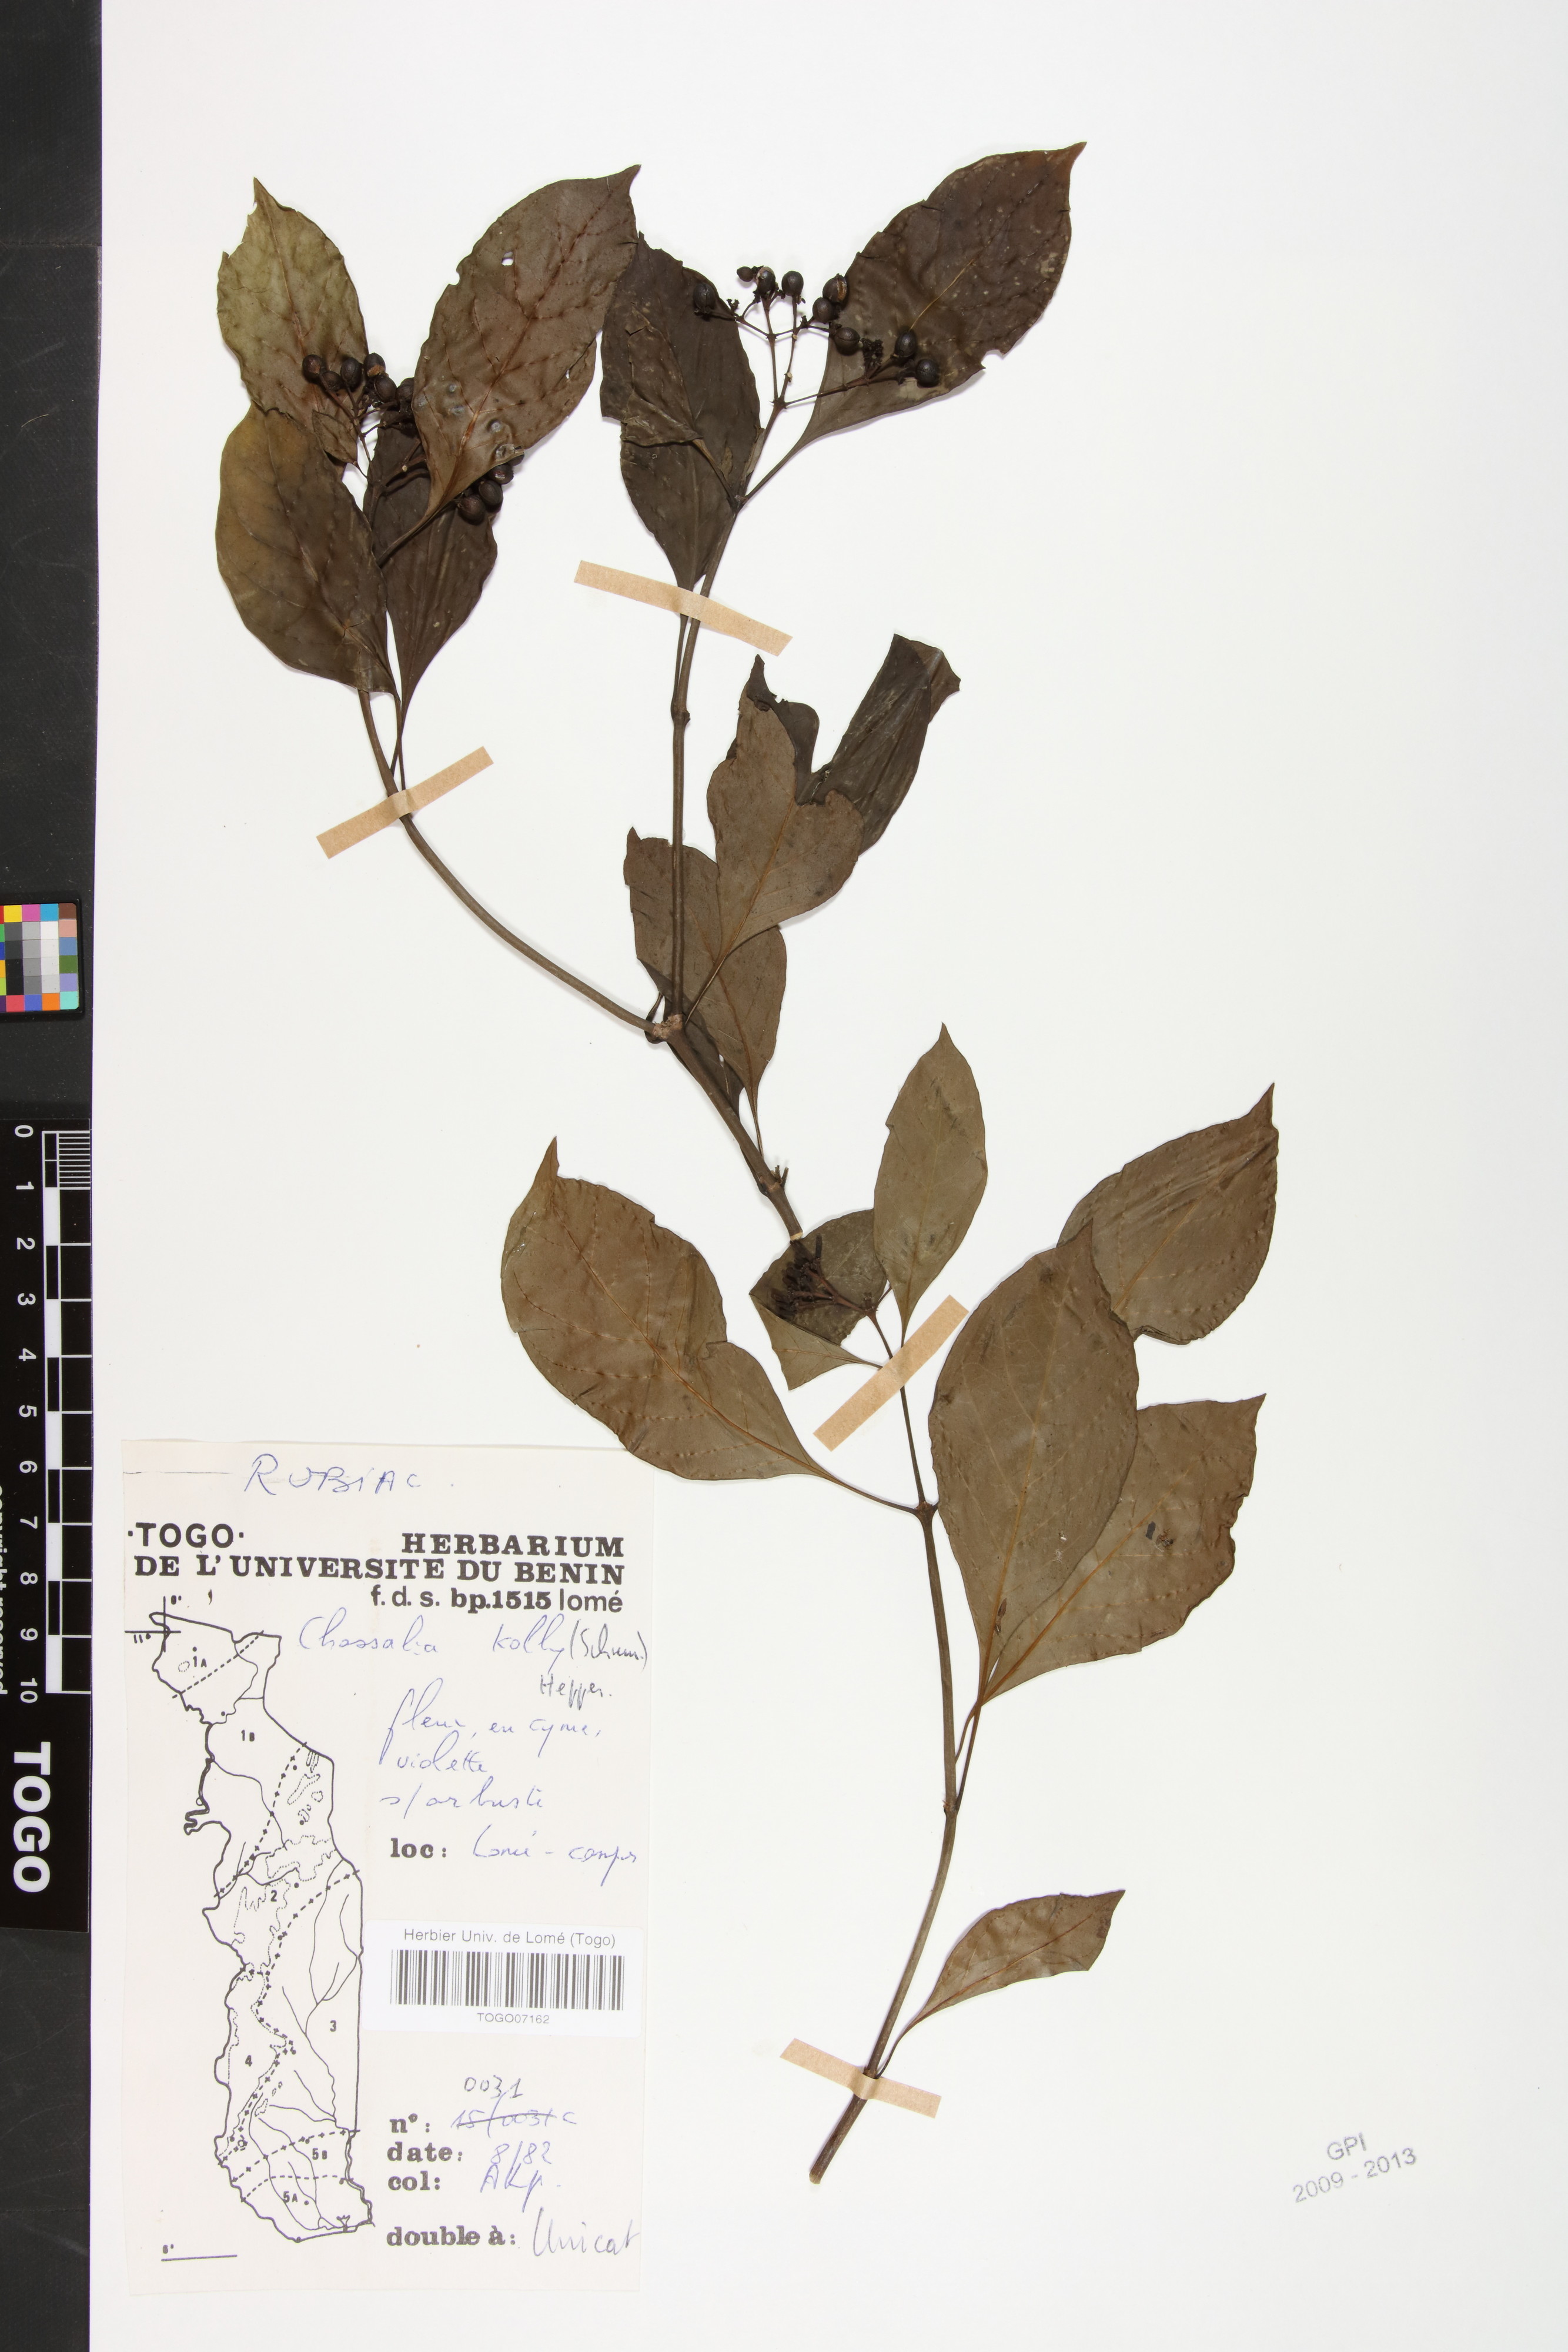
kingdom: Plantae
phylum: Tracheophyta
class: Magnoliopsida
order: Gentianales
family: Rubiaceae
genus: Chassalia
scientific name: Chassalia kolly
